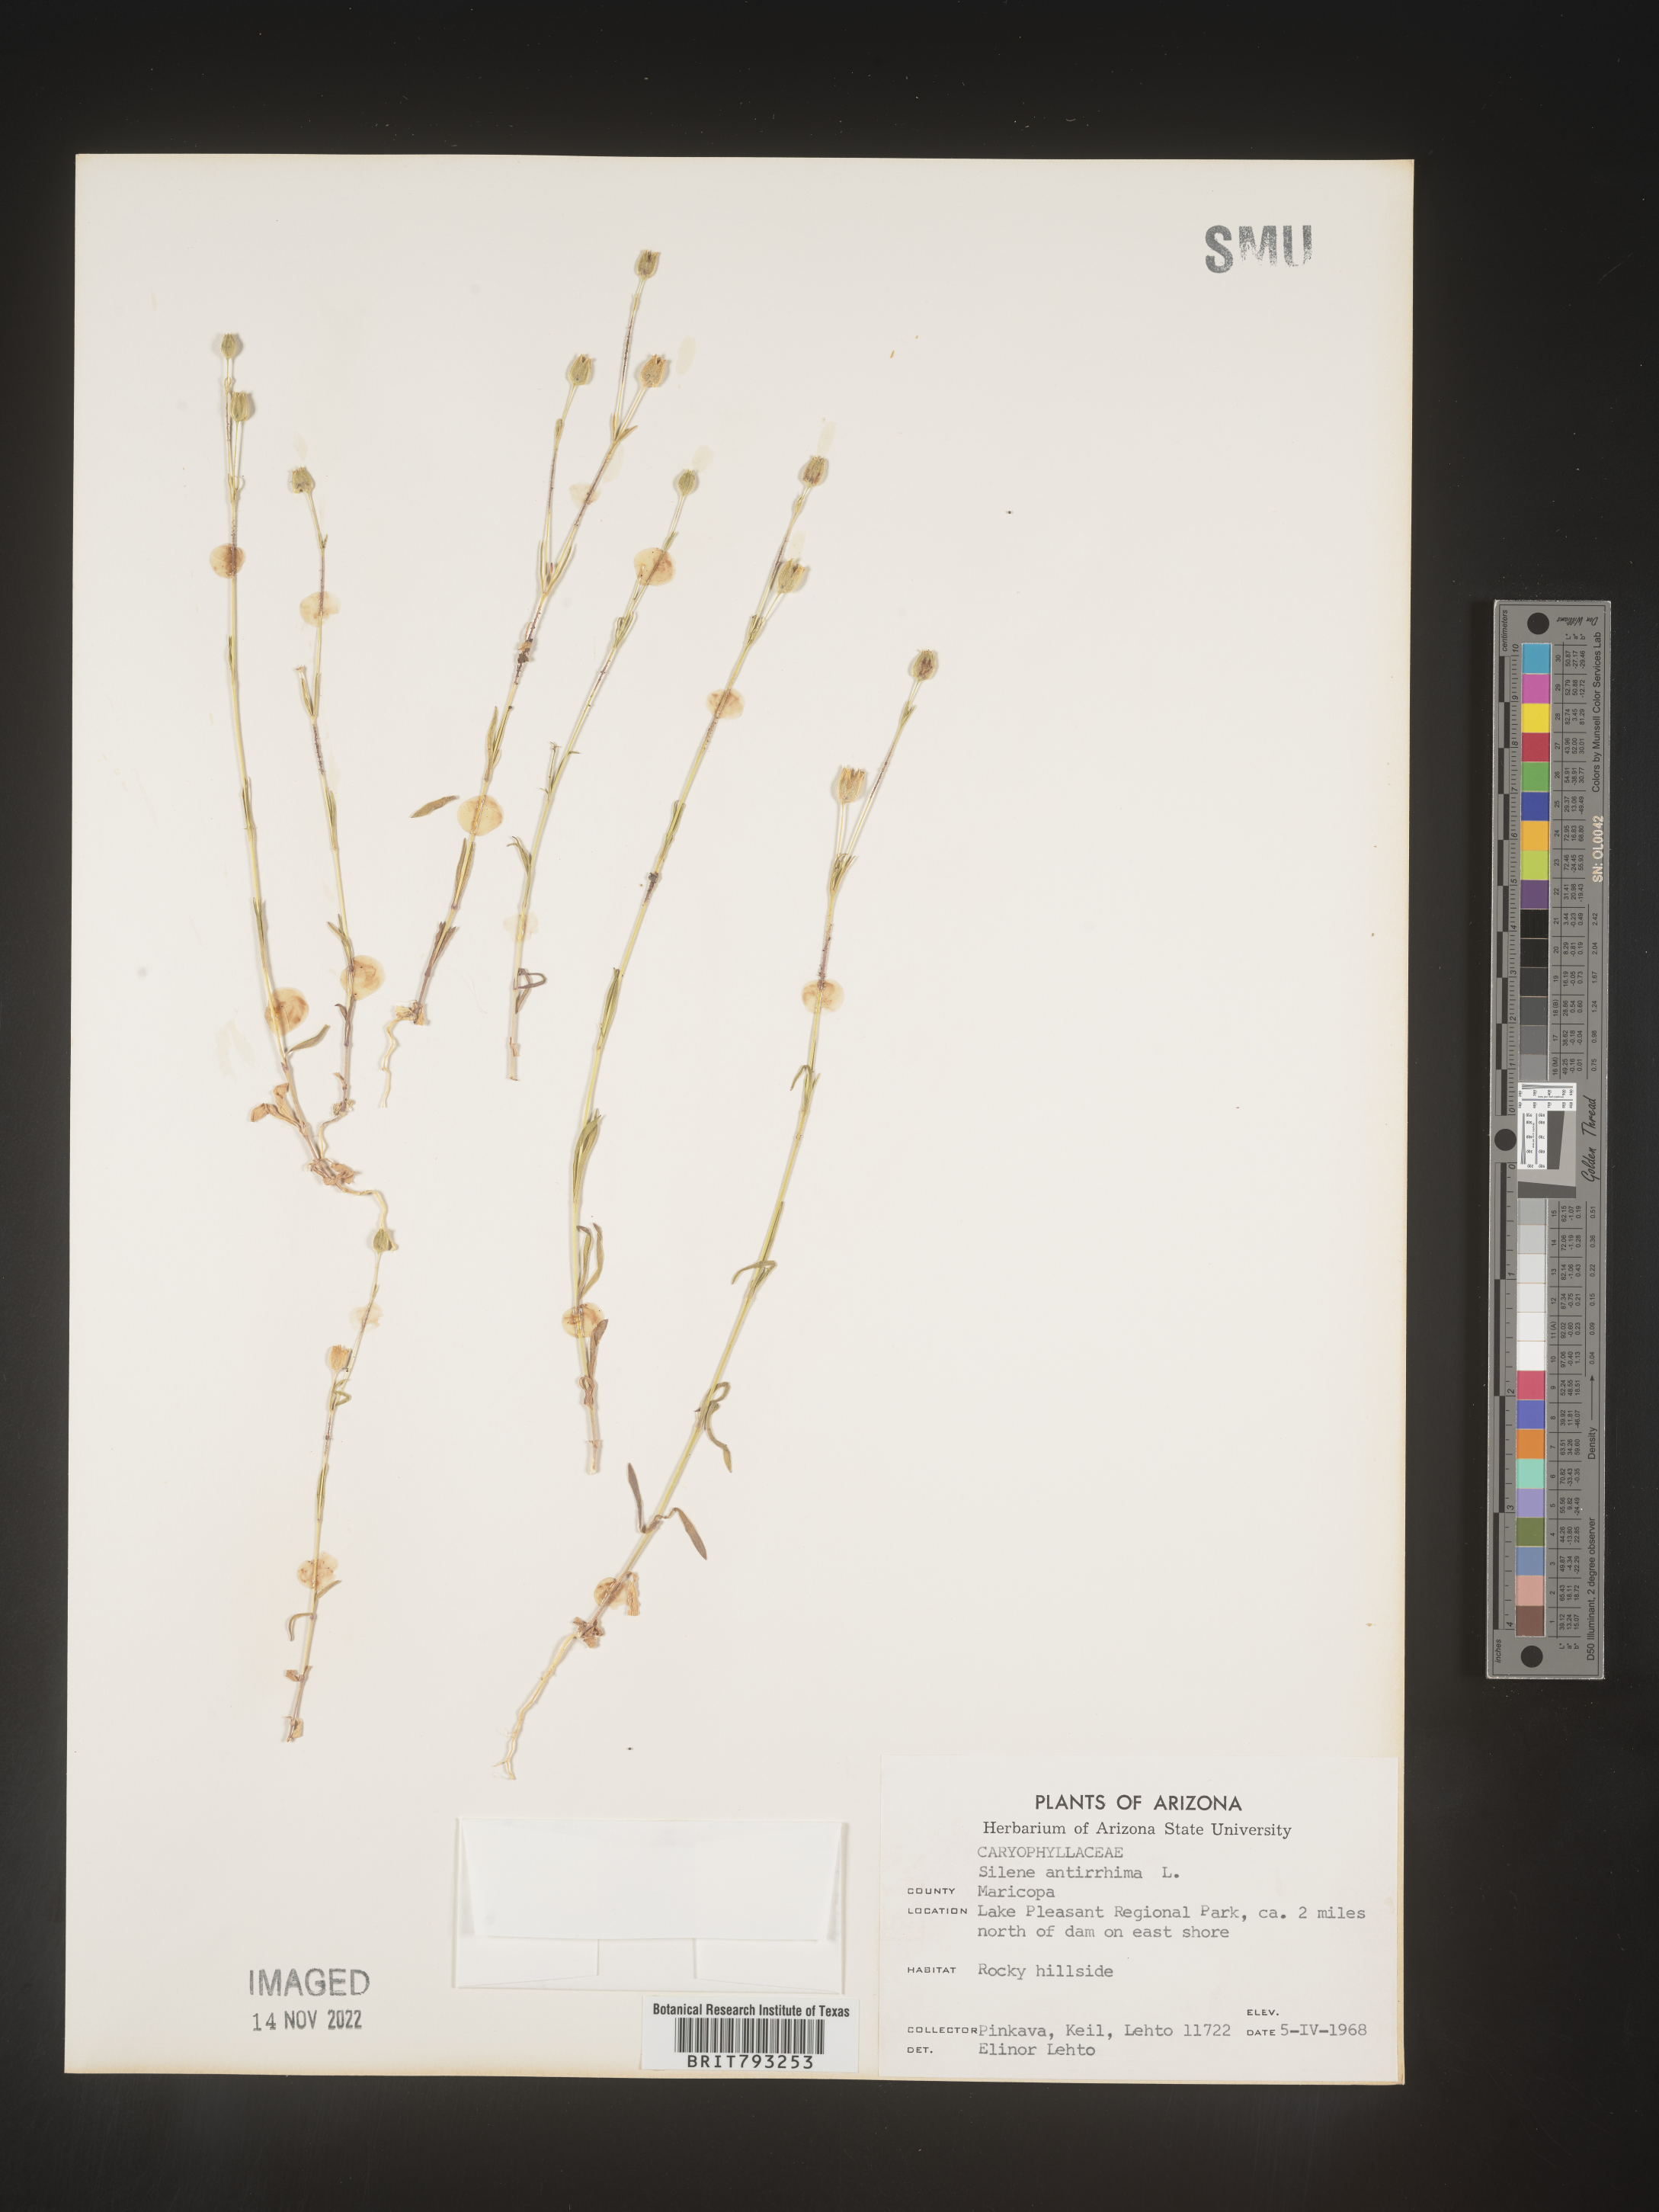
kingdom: Plantae
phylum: Tracheophyta
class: Magnoliopsida
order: Caryophyllales
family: Caryophyllaceae
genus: Silene
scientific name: Silene antirrhina
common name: Sleepy catchfly
